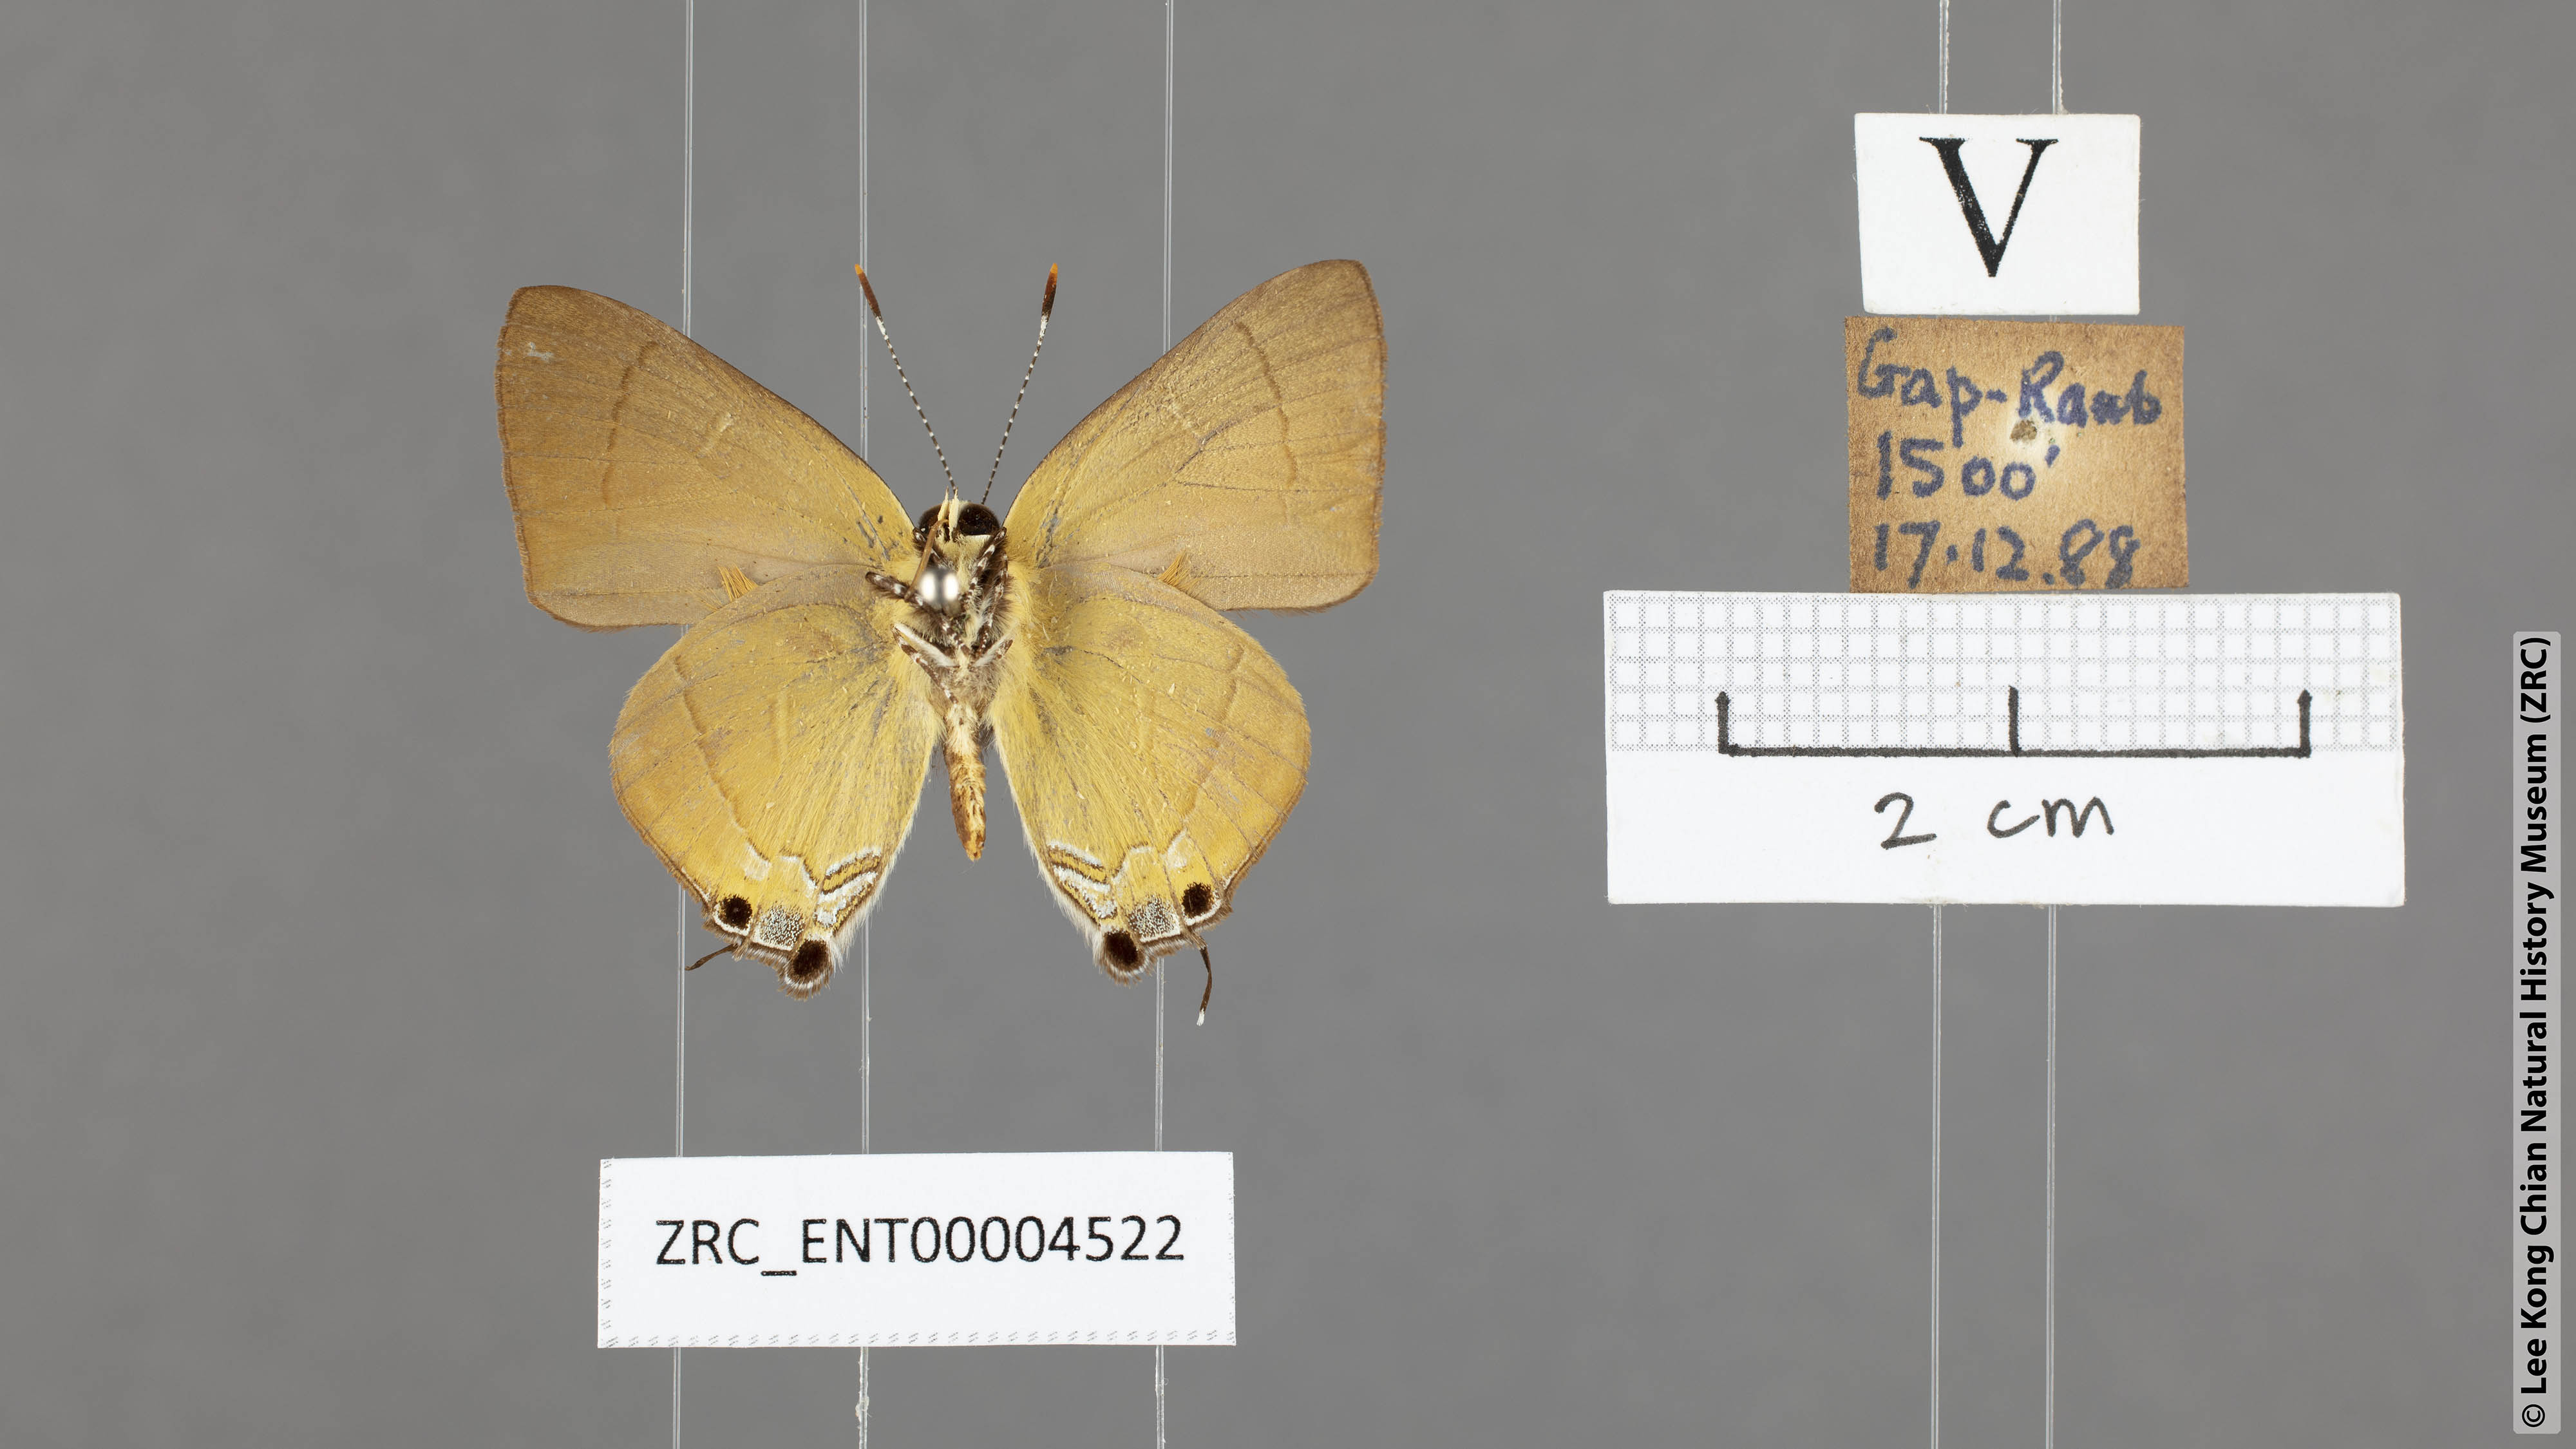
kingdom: Animalia
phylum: Arthropoda
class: Insecta
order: Lepidoptera
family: Lycaenidae
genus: Rapala
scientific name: Rapala suffusa
